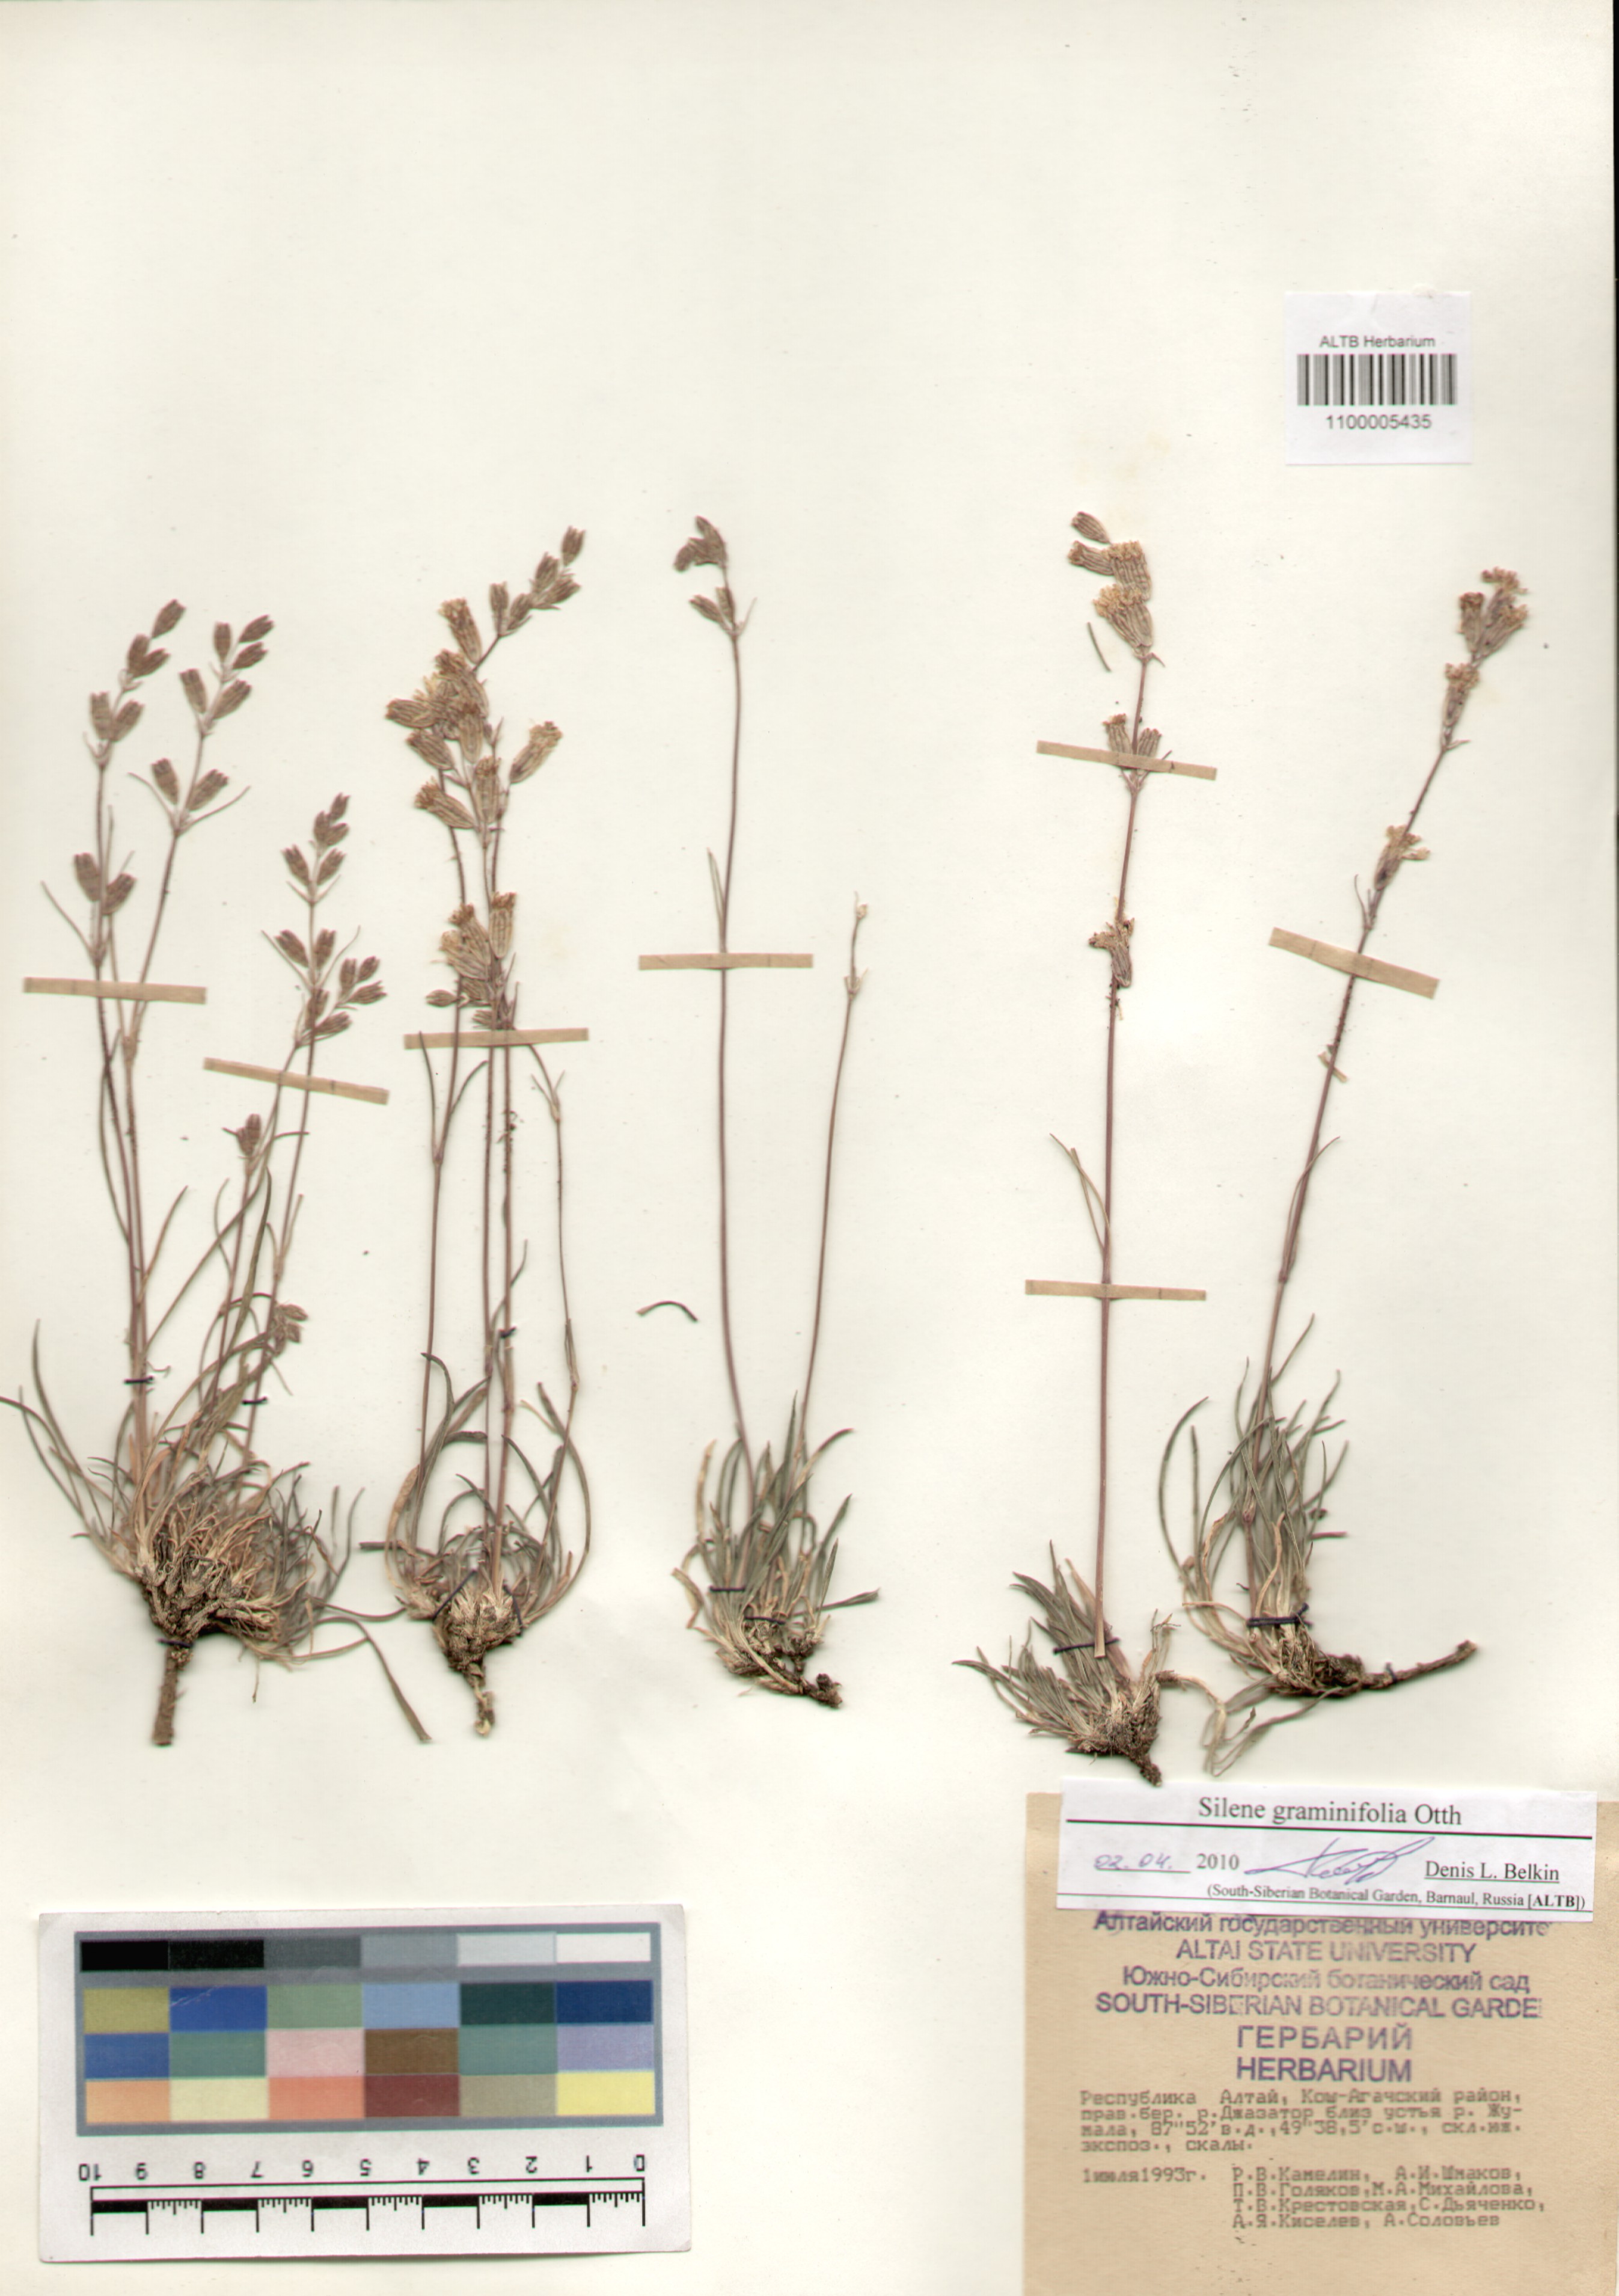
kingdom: Plantae
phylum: Tracheophyta
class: Magnoliopsida
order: Caryophyllales
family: Caryophyllaceae
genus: Silene
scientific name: Silene graminifolia
